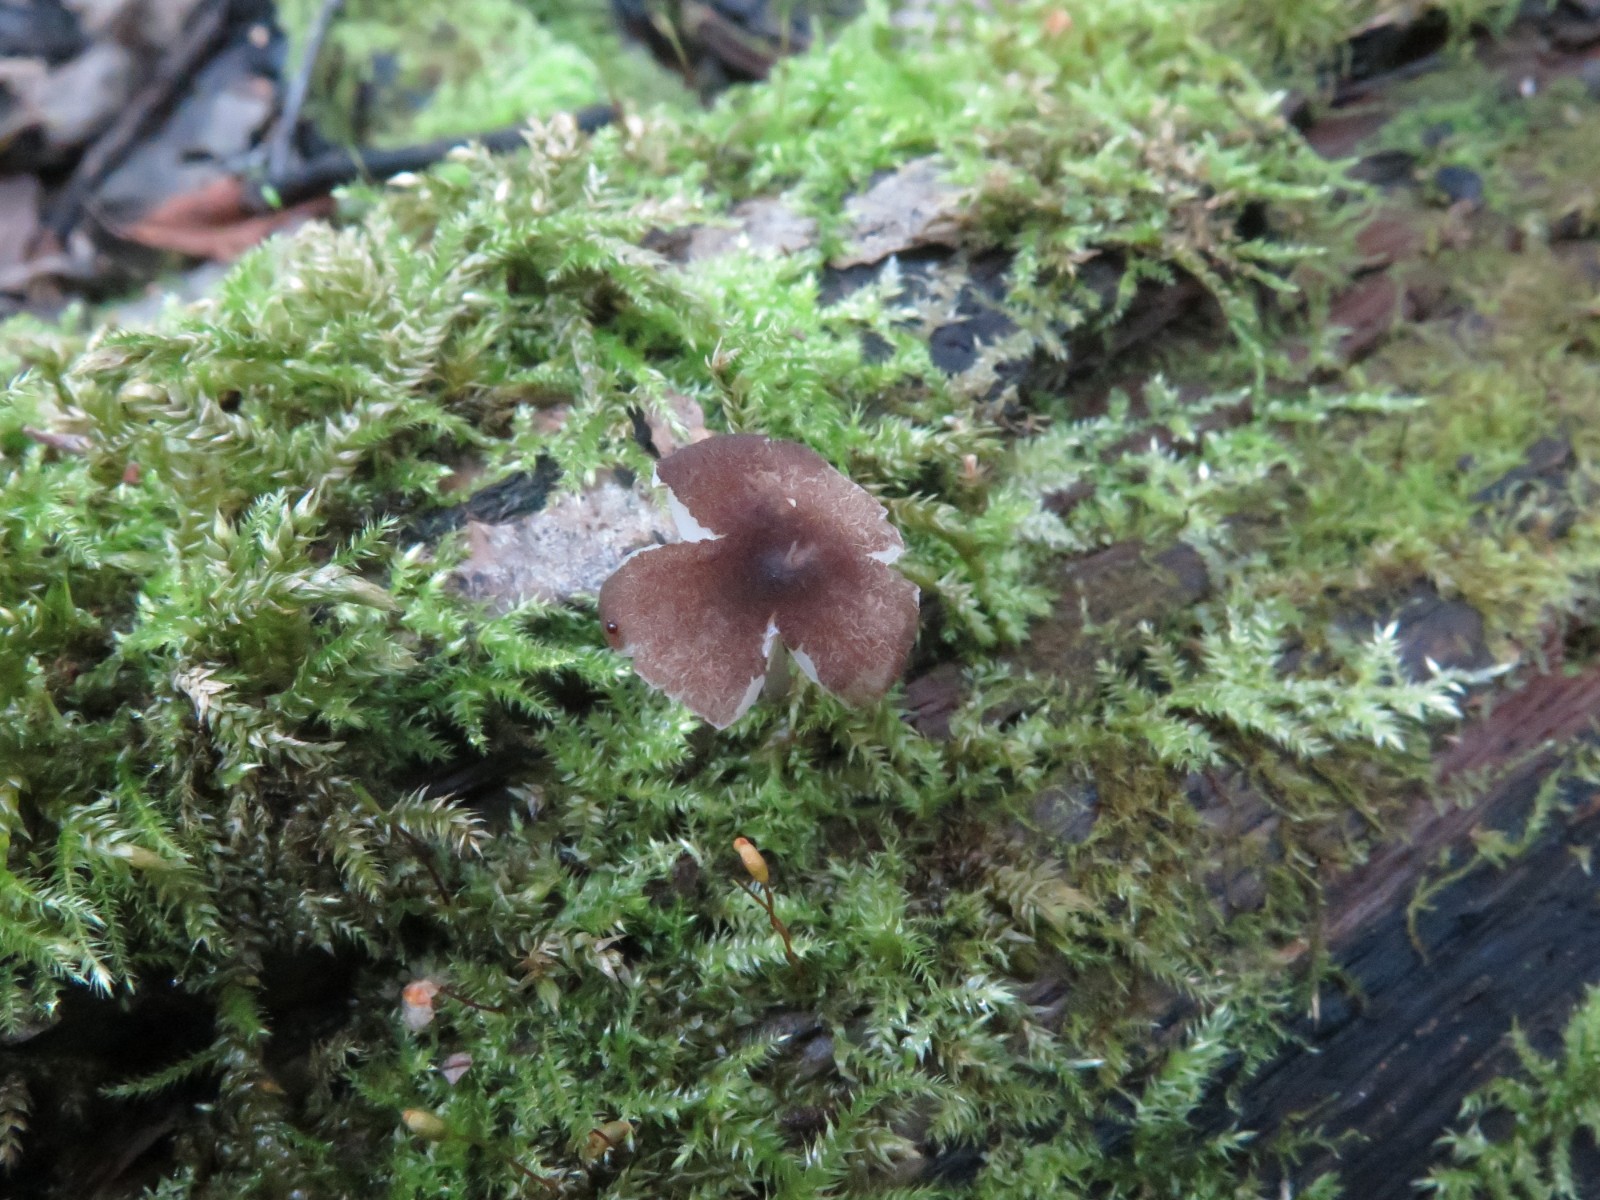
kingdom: Fungi
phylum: Basidiomycota
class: Agaricomycetes
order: Agaricales
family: Pluteaceae
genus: Pluteus
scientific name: Pluteus podospileus
